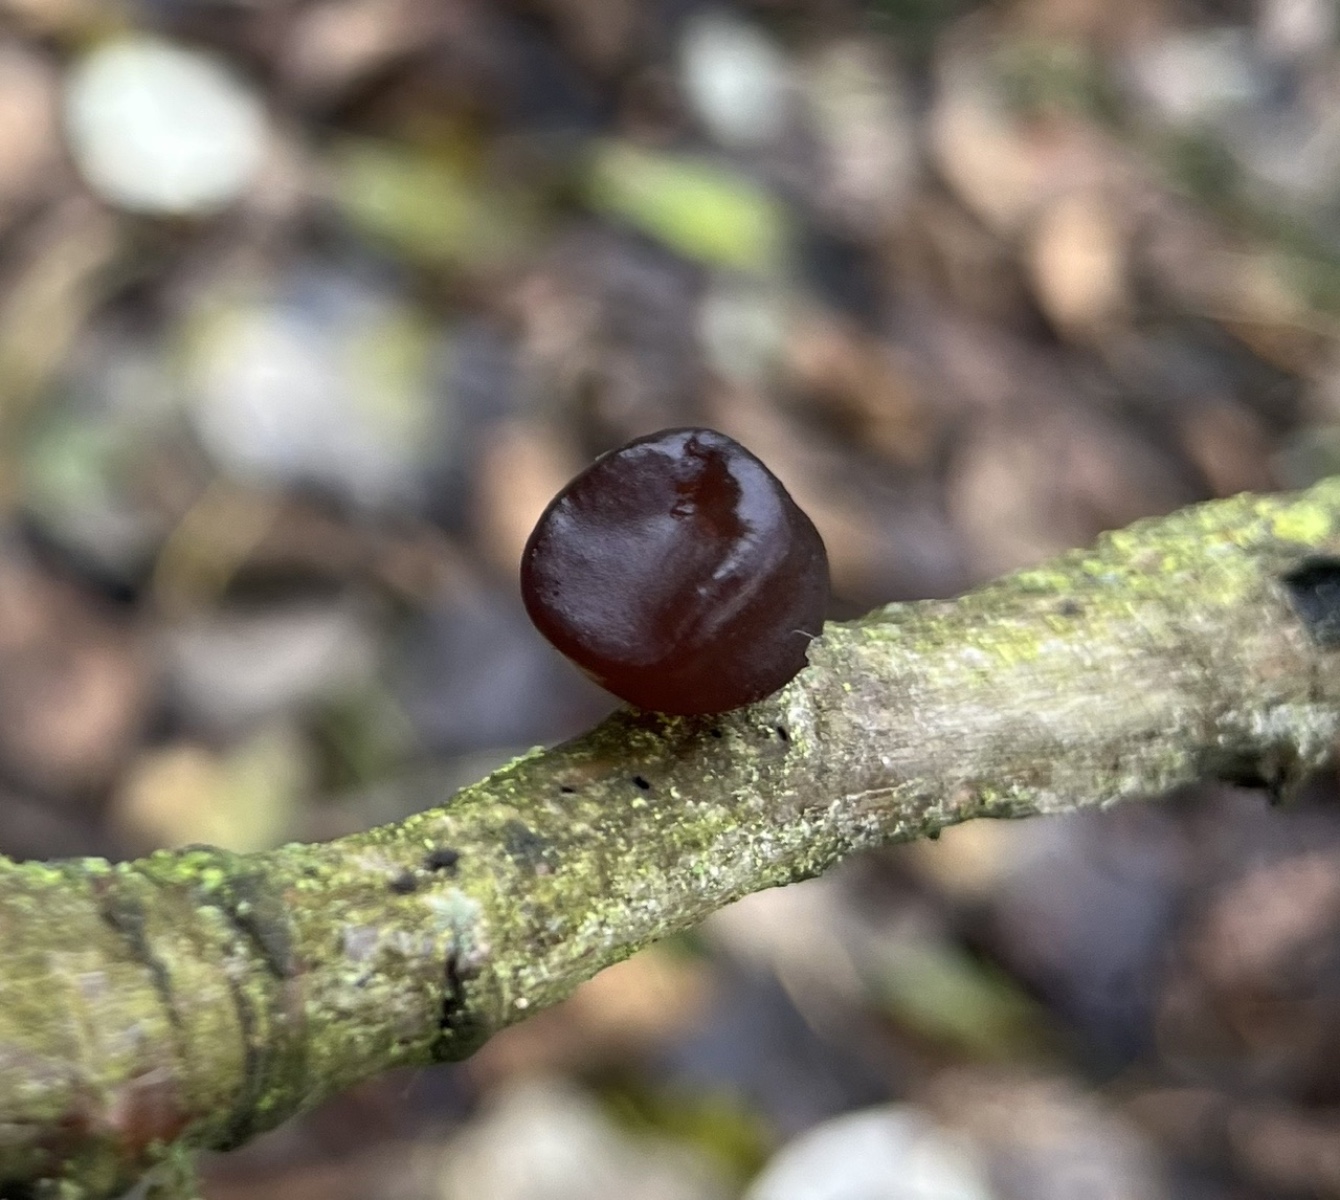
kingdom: Fungi
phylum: Basidiomycota
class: Agaricomycetes
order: Auriculariales
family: Auriculariaceae
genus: Exidia
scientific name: Exidia recisa
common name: pile-bævretop
